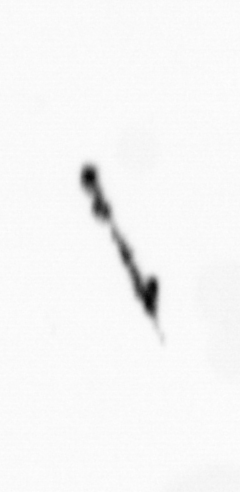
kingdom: Bacteria
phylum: Cyanobacteria
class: Cyanobacteriia
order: Cyanobacteriales
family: Microcoleaceae
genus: Trichodesmium
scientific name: Trichodesmium
